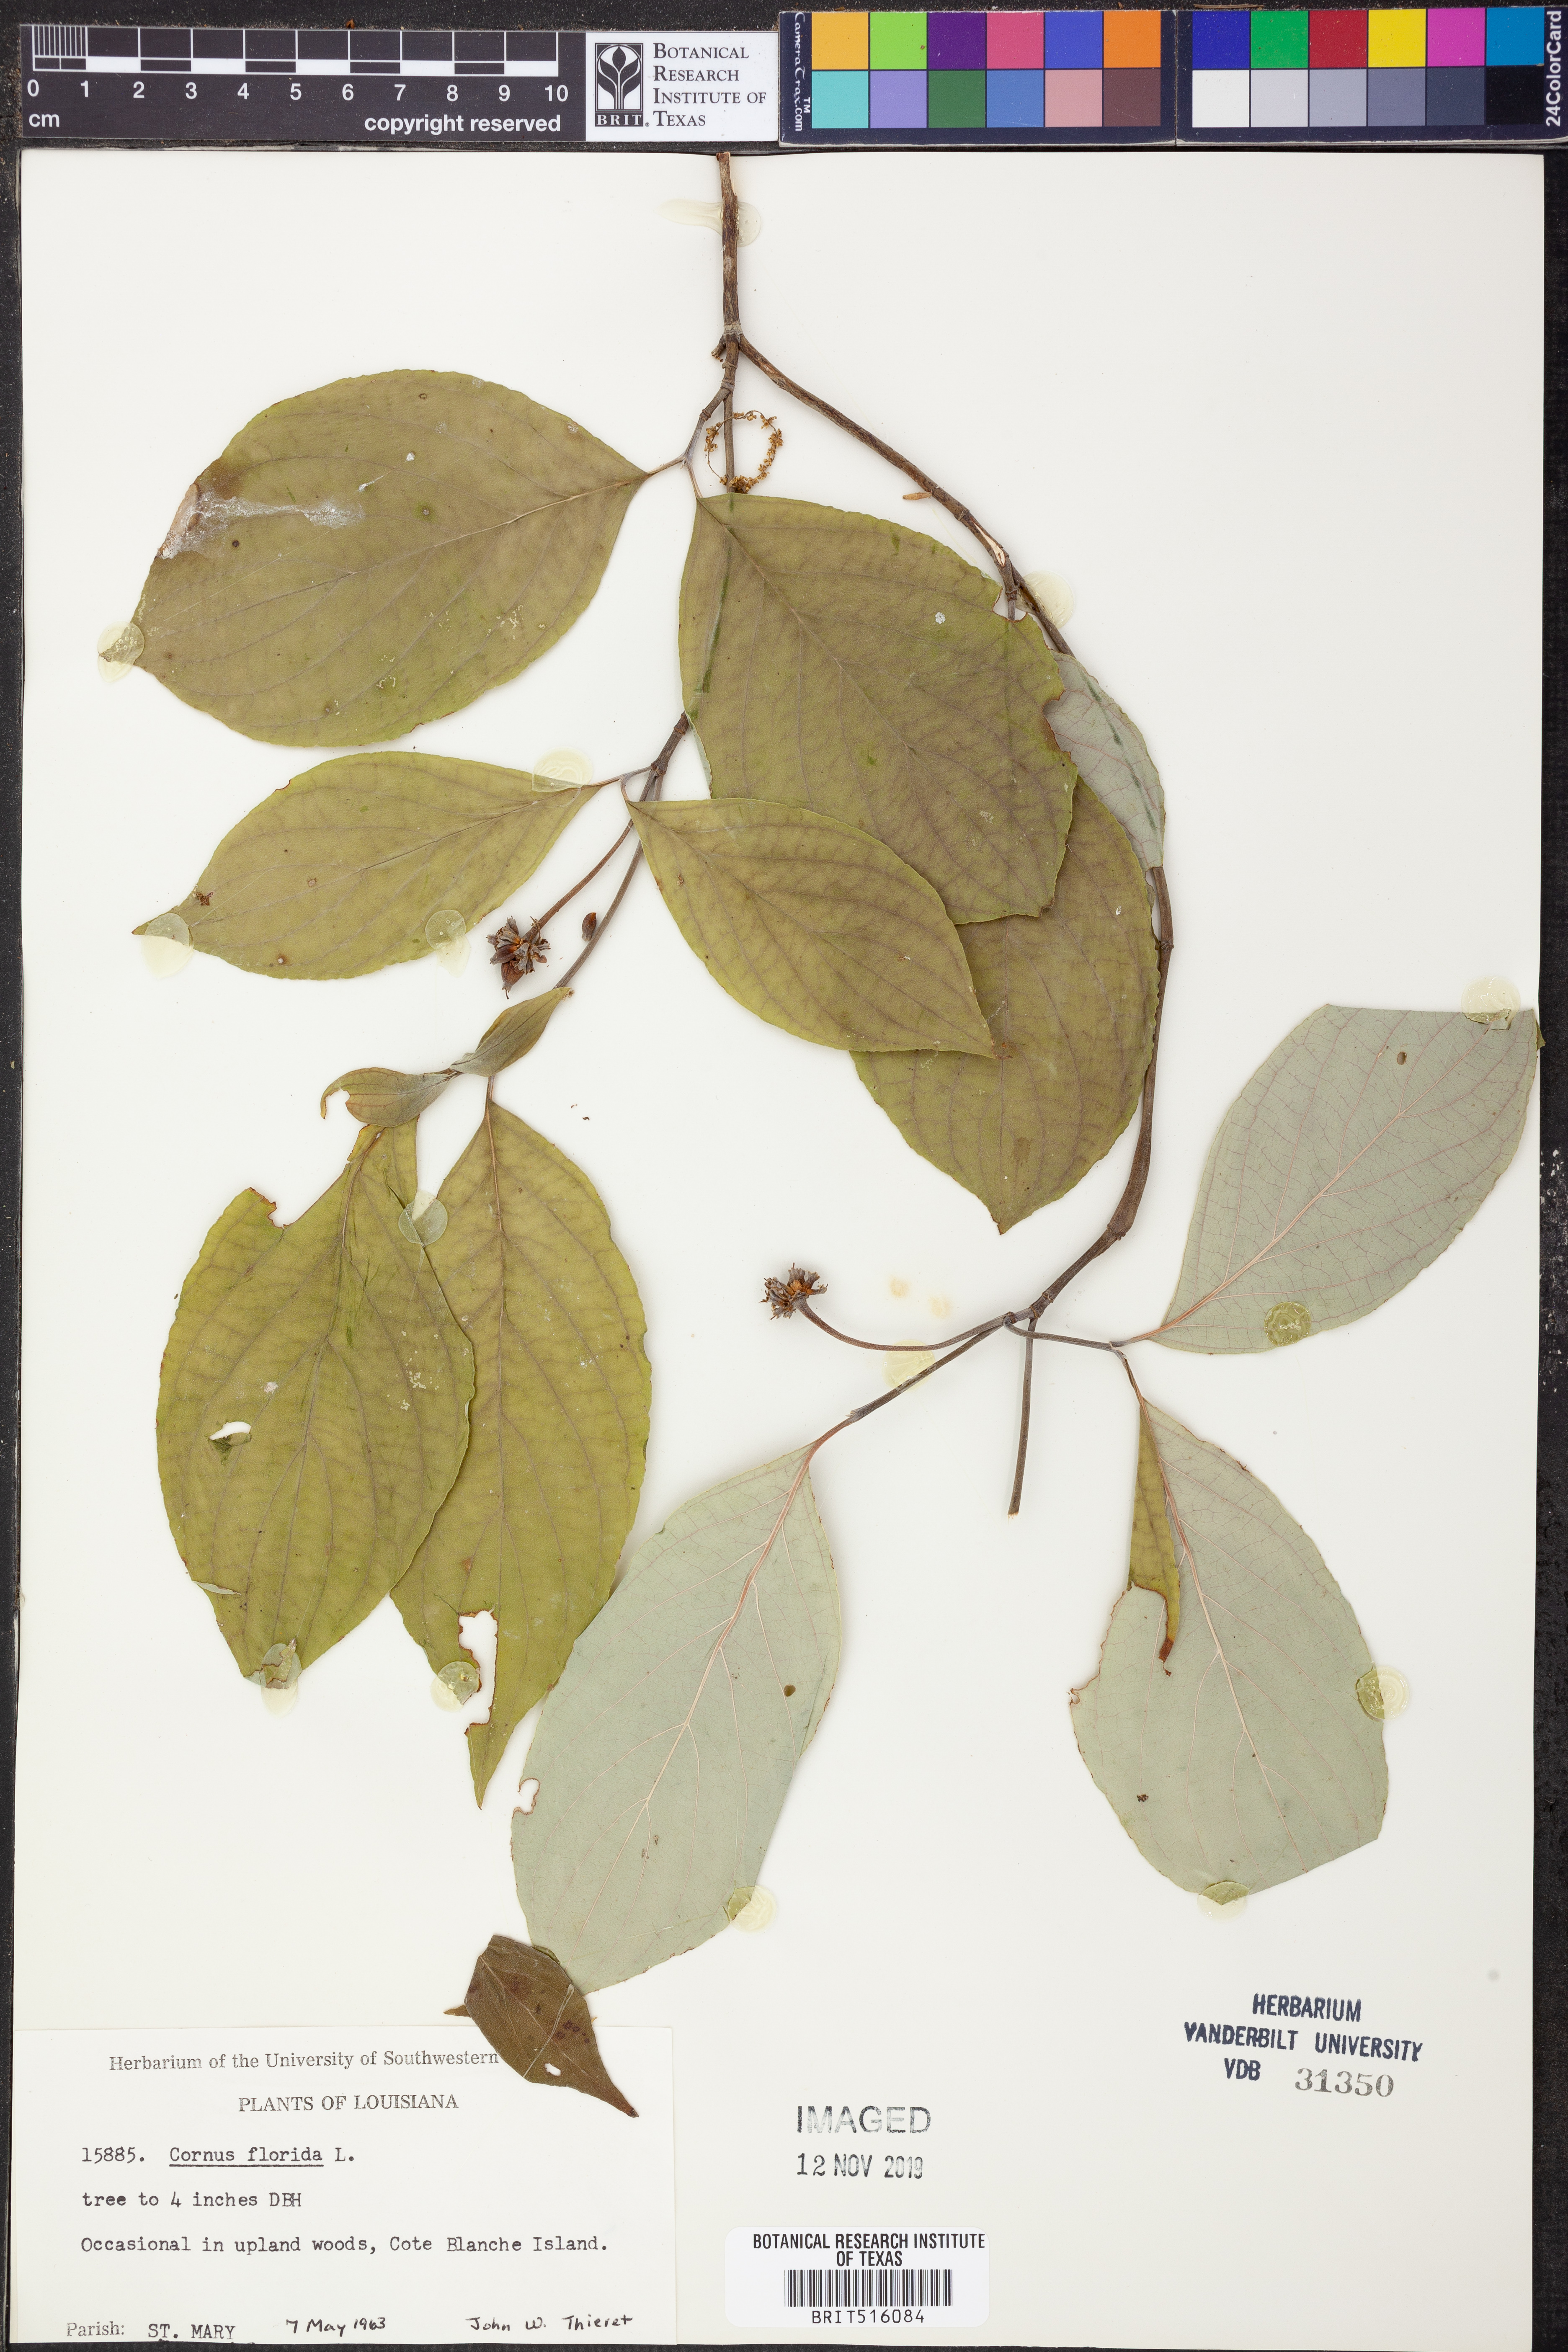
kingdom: Plantae
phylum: Tracheophyta
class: Magnoliopsida
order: Cornales
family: Cornaceae
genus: Cornus
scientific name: Cornus florida
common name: Flowering dogwood
